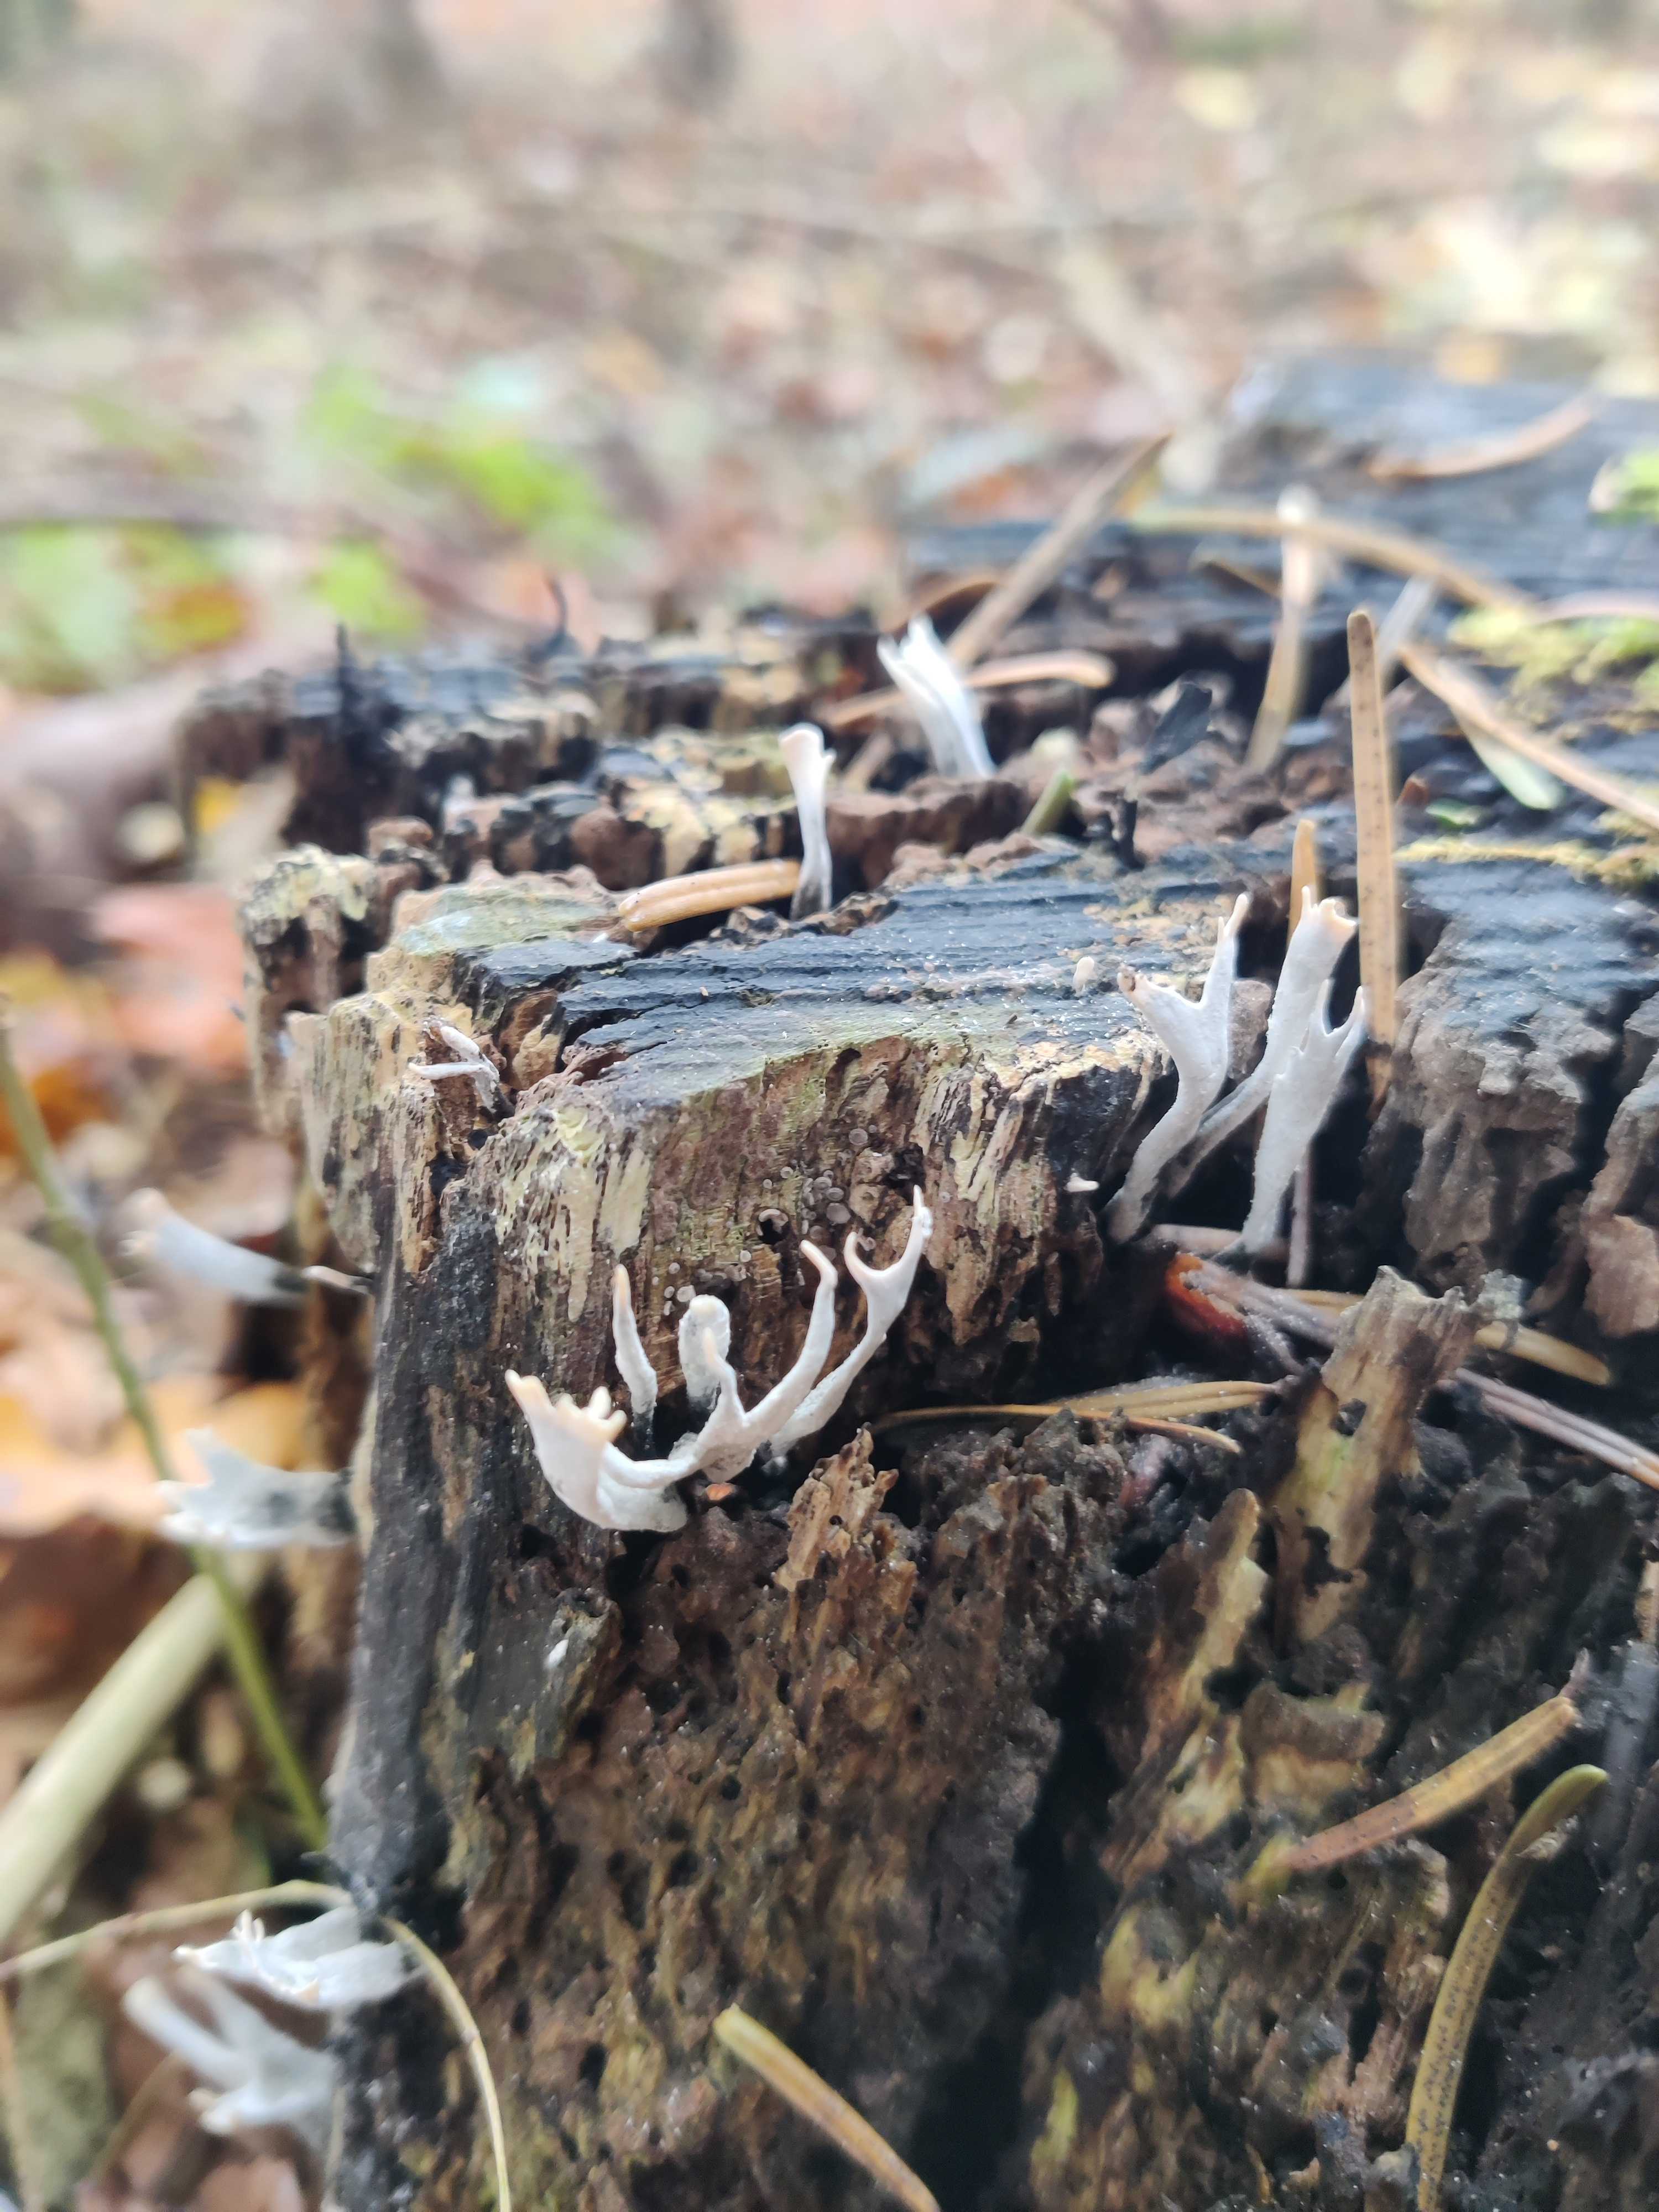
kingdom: Fungi
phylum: Ascomycota
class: Sordariomycetes
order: Xylariales
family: Xylariaceae
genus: Xylaria
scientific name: Xylaria hypoxylon
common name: grenet stødsvamp
